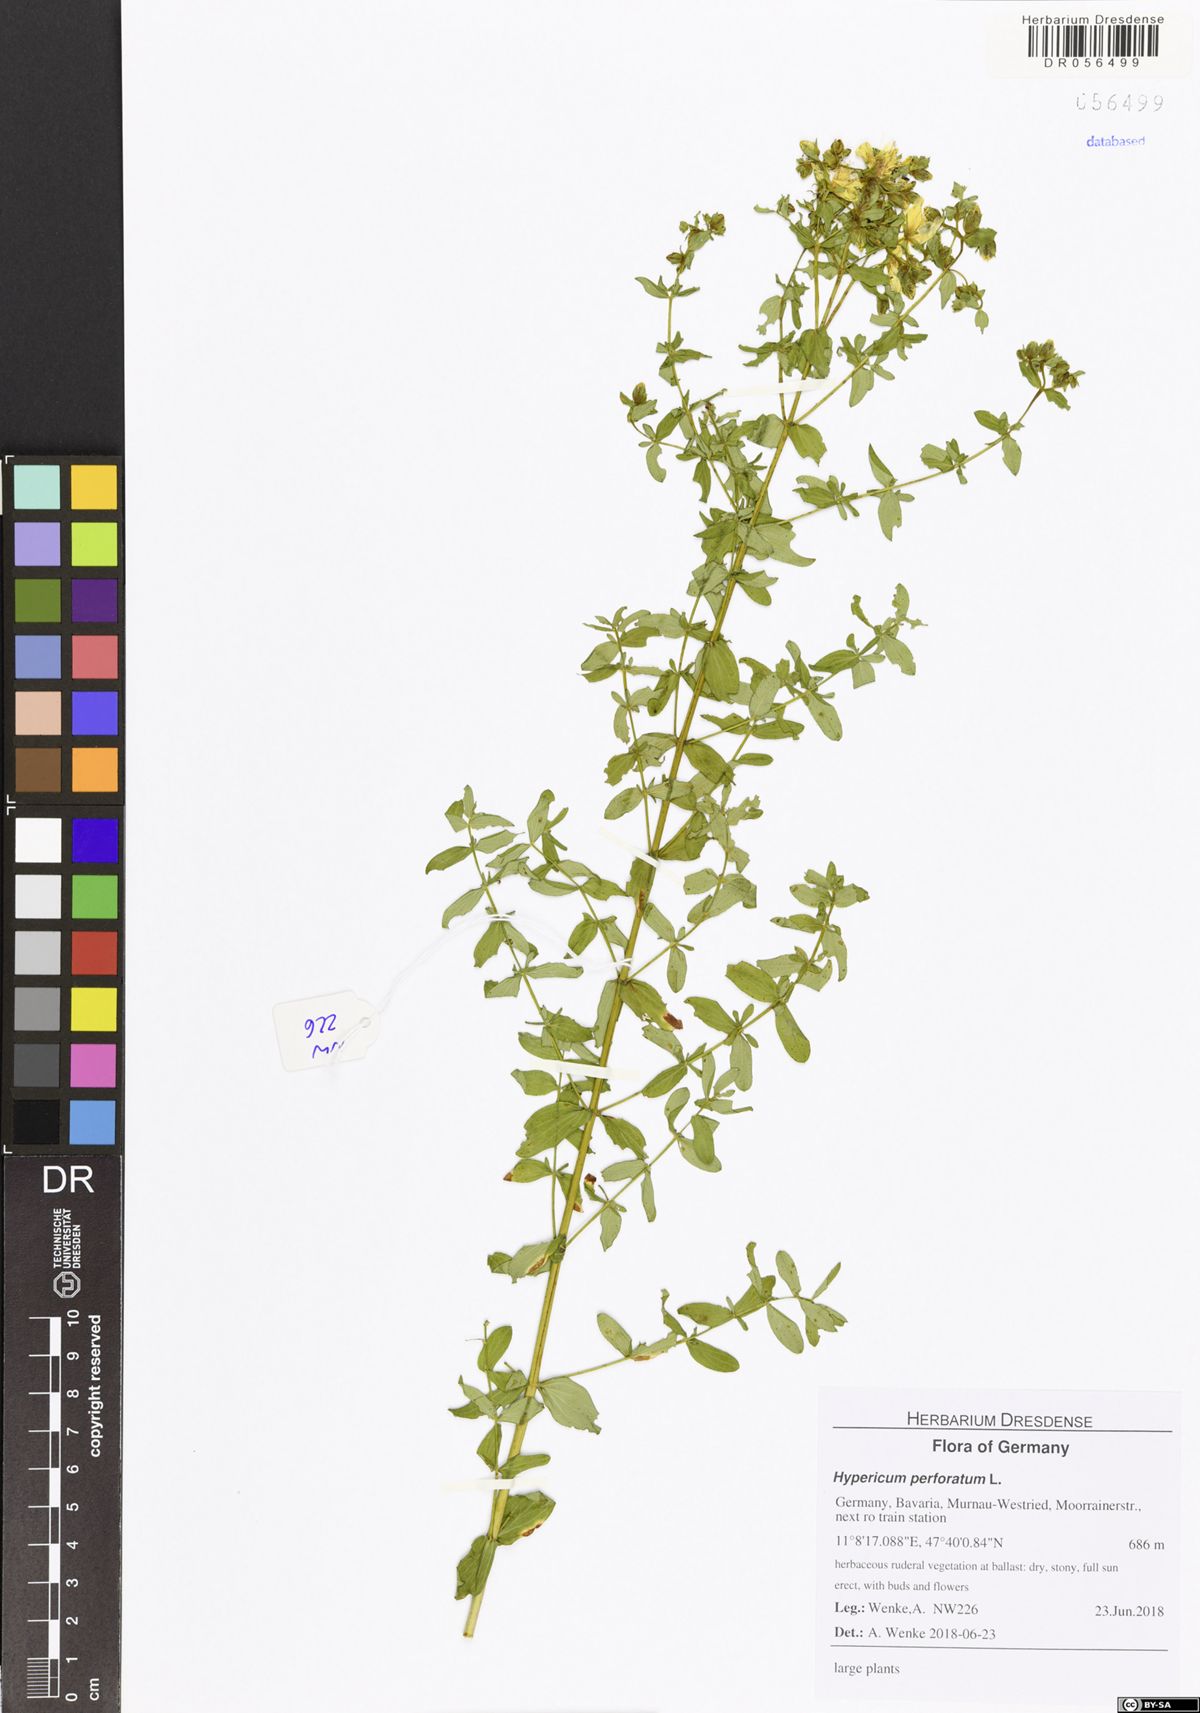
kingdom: Plantae
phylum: Tracheophyta
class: Magnoliopsida
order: Malpighiales
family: Hypericaceae
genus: Hypericum
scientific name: Hypericum perforatum
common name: Common st. johnswort
